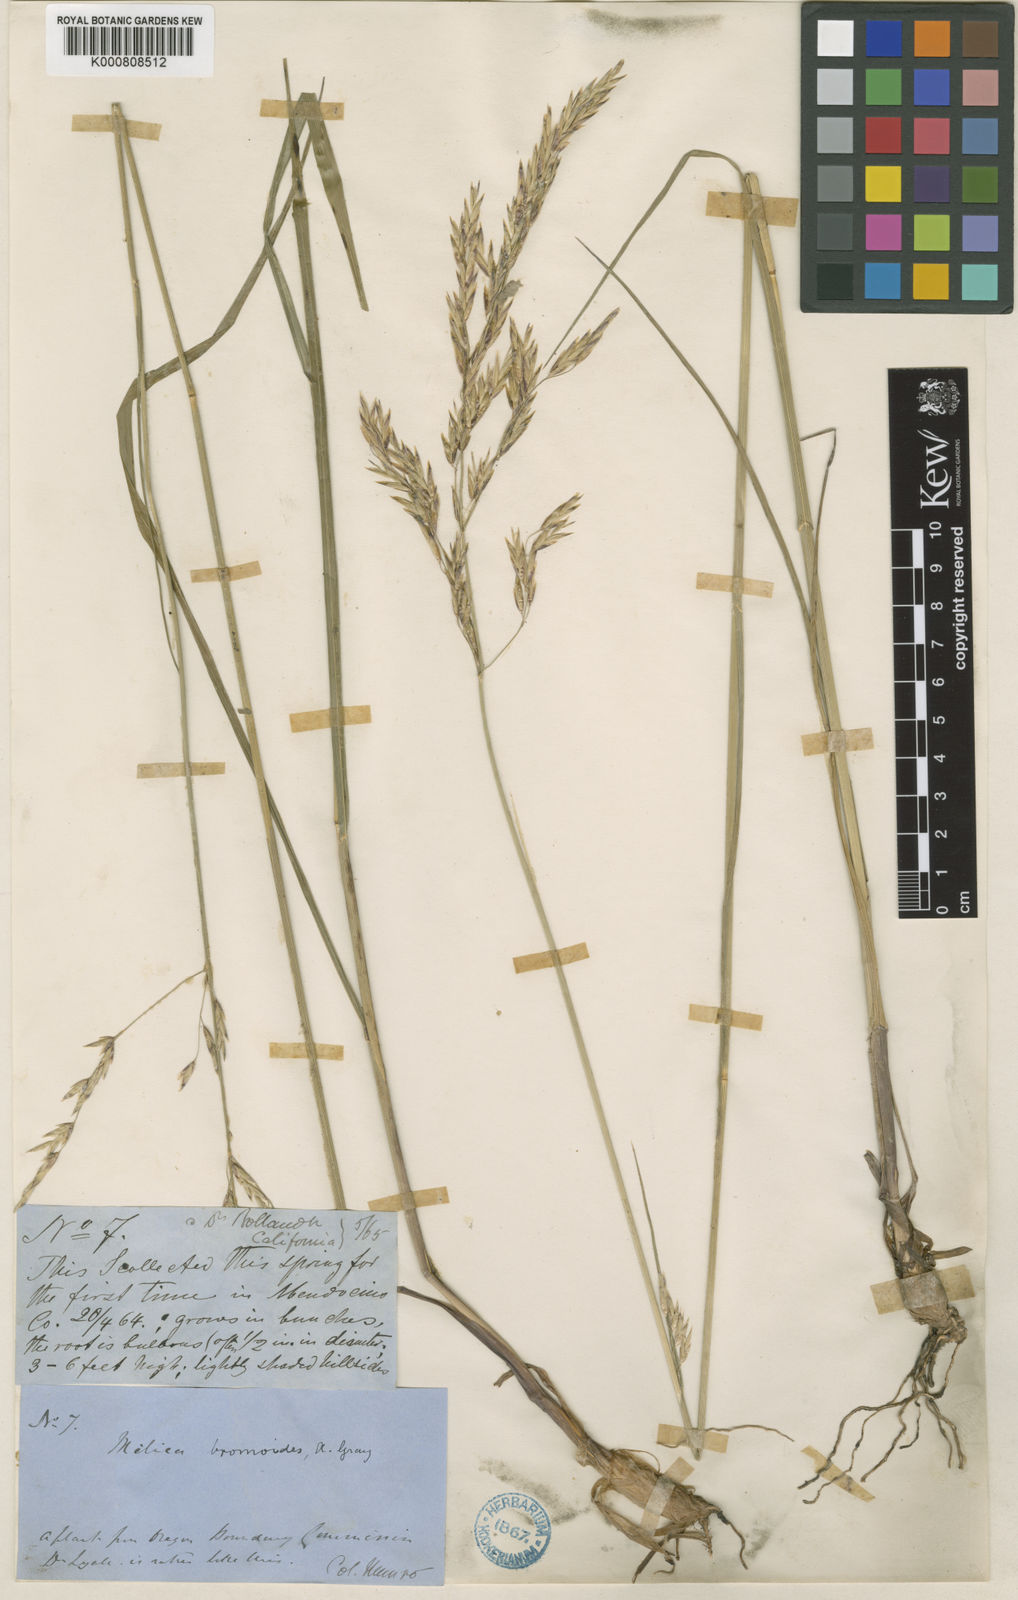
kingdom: Plantae
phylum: Tracheophyta
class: Liliopsida
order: Poales
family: Poaceae
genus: Melica
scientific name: Melica
